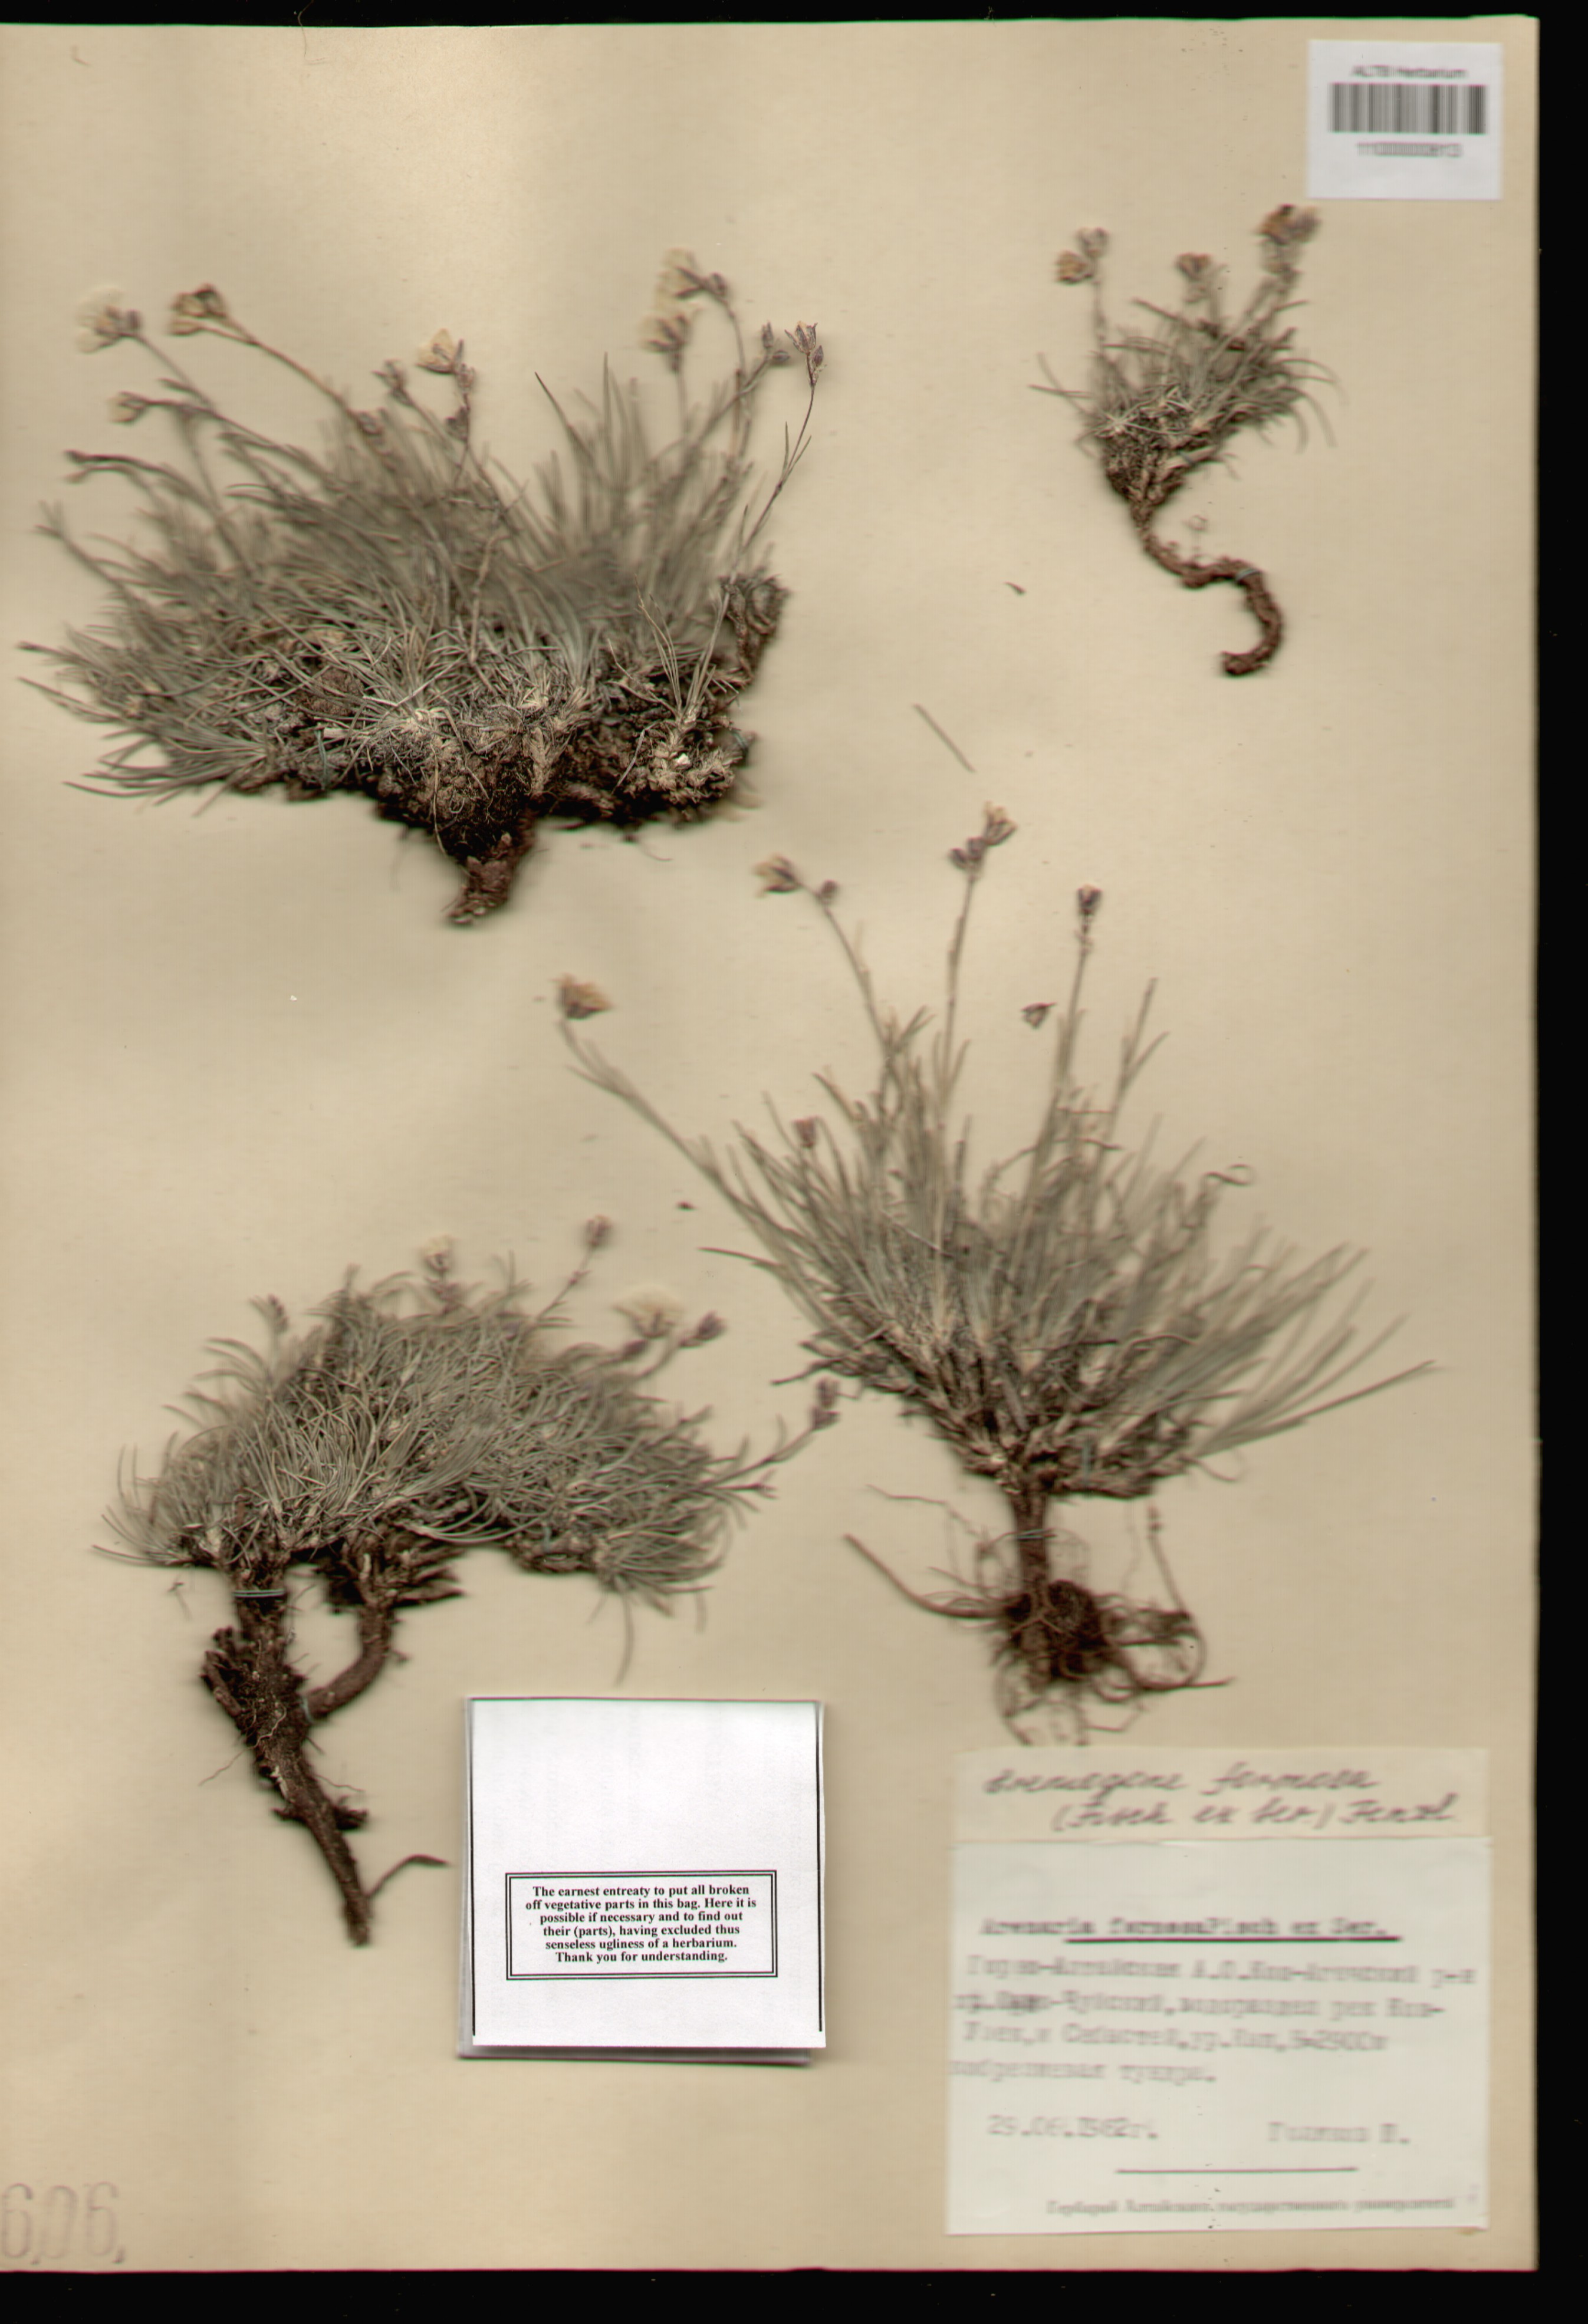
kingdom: Plantae
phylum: Tracheophyta
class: Magnoliopsida
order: Caryophyllales
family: Caryophyllaceae
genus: Eremogone
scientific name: Eremogone formosa
